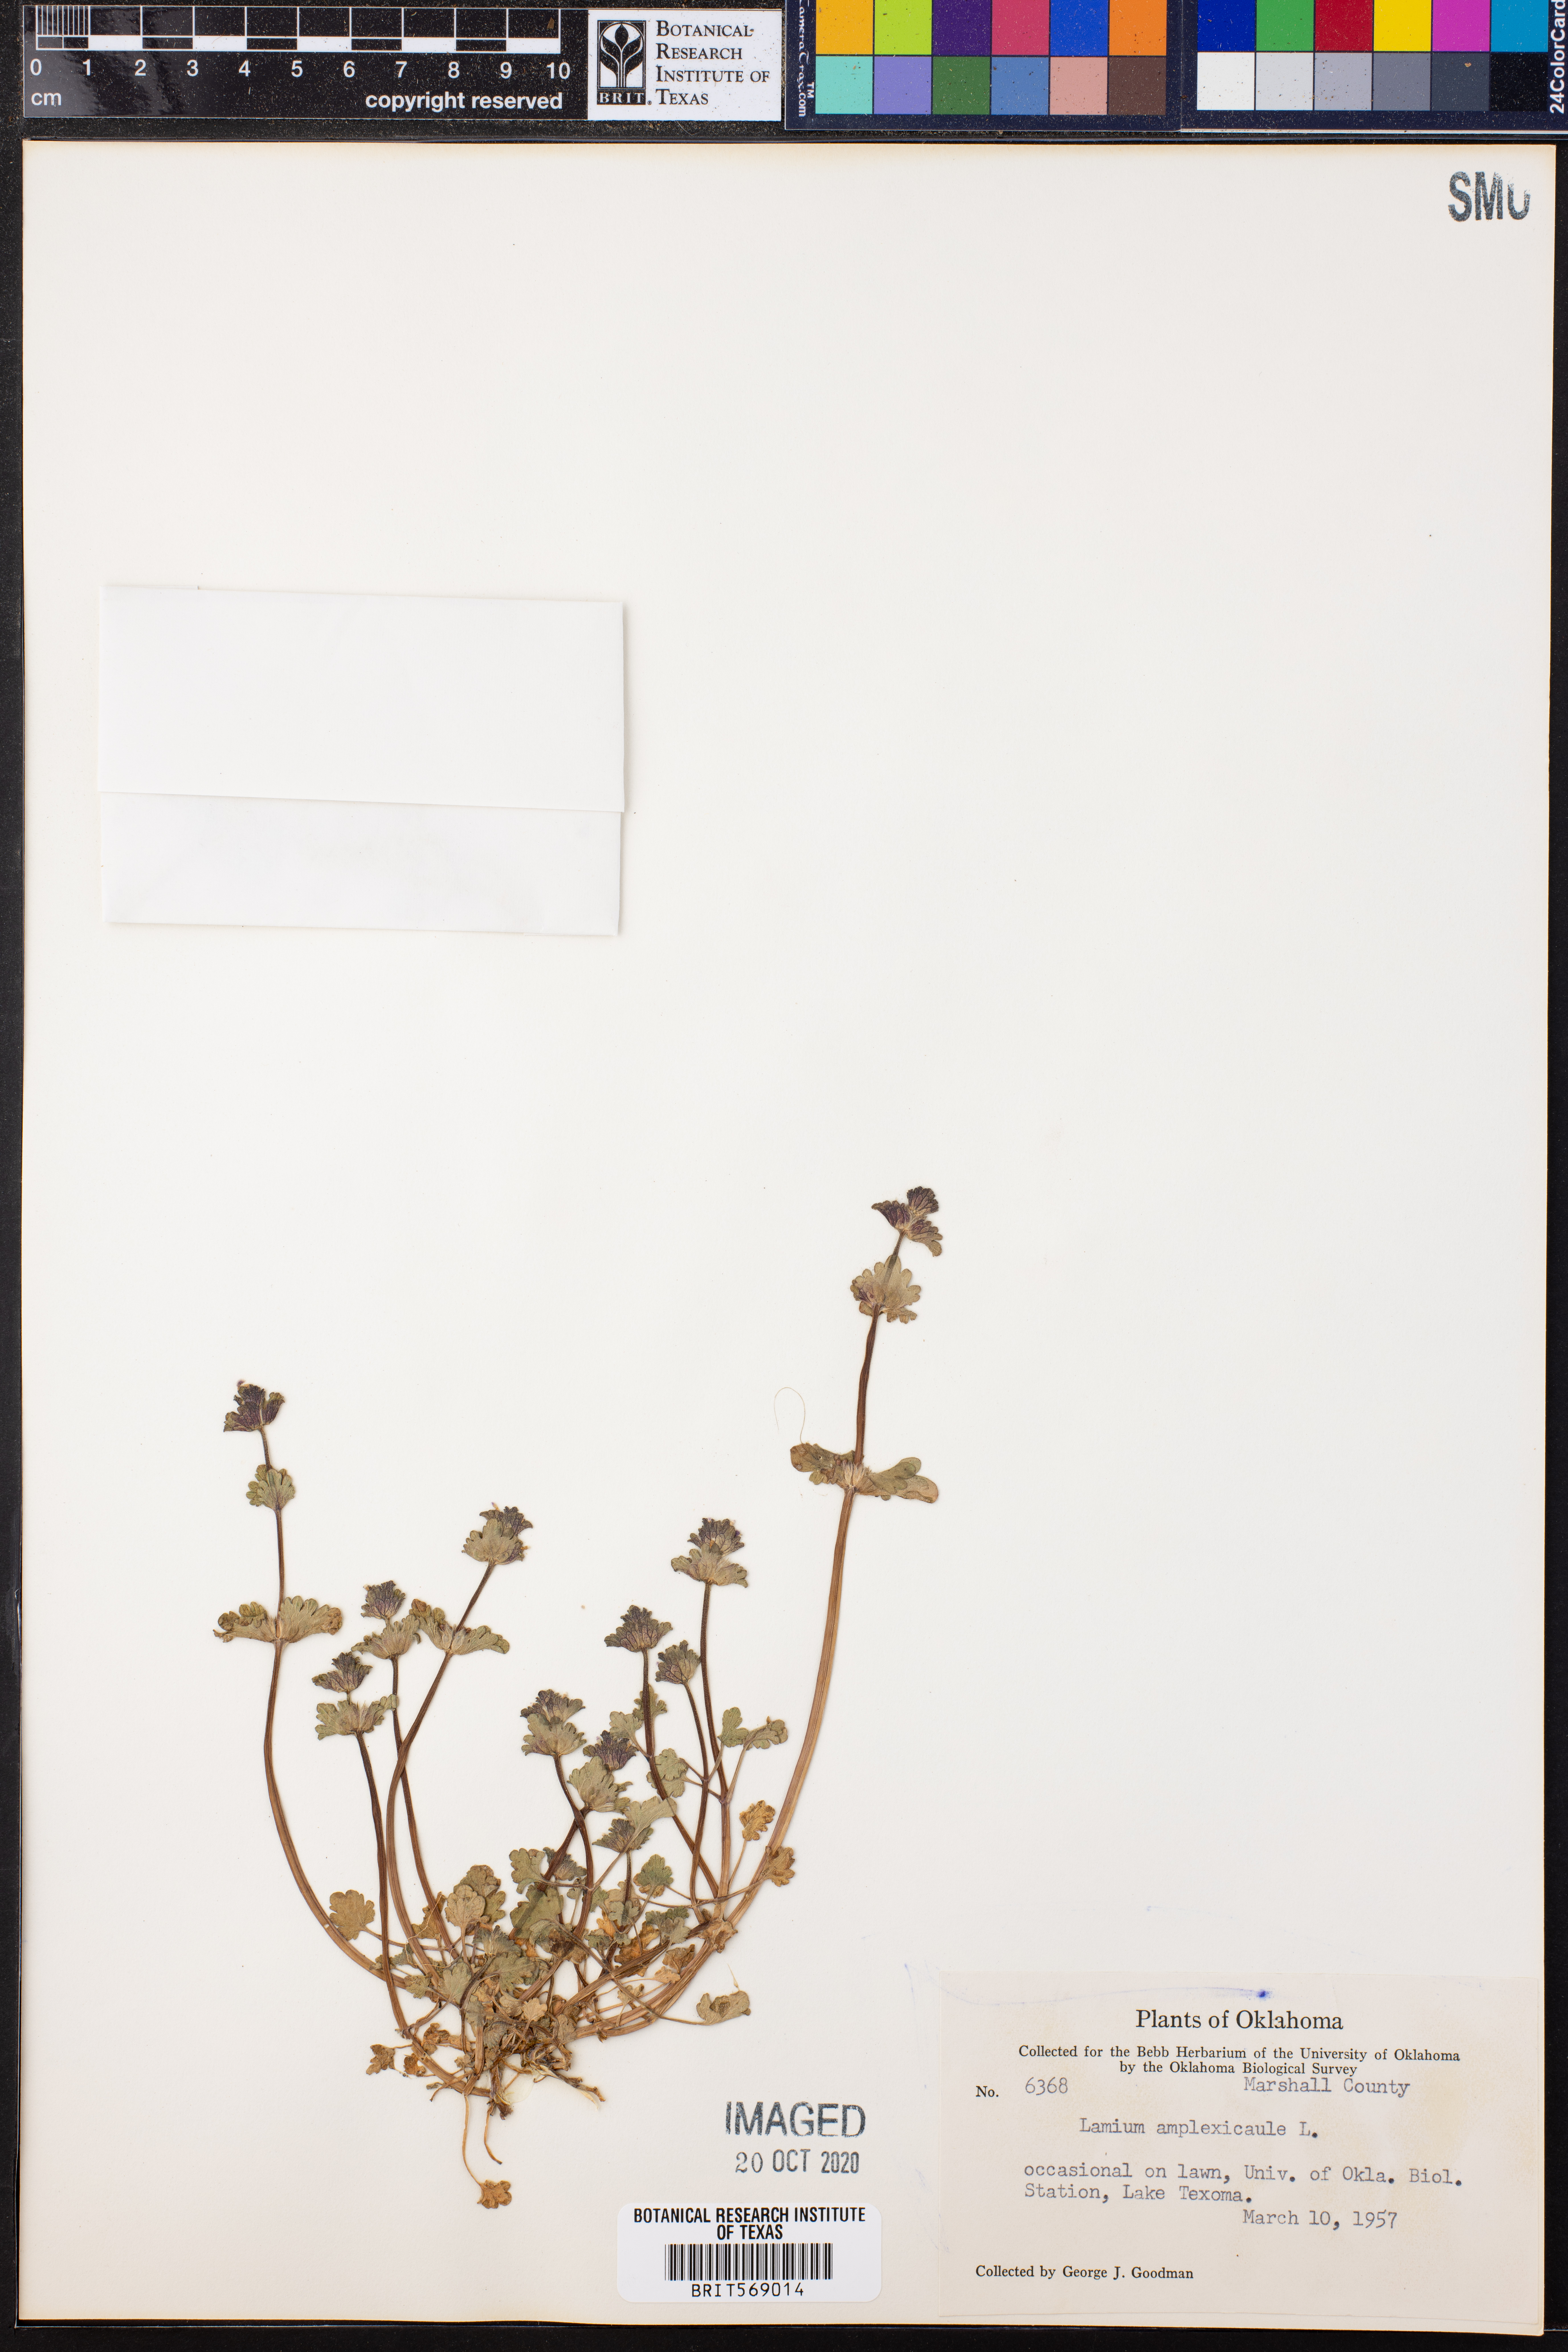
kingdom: Plantae
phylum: Tracheophyta
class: Magnoliopsida
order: Lamiales
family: Lamiaceae
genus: Lamium
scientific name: Lamium amplexicaule
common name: Henbit dead-nettle
